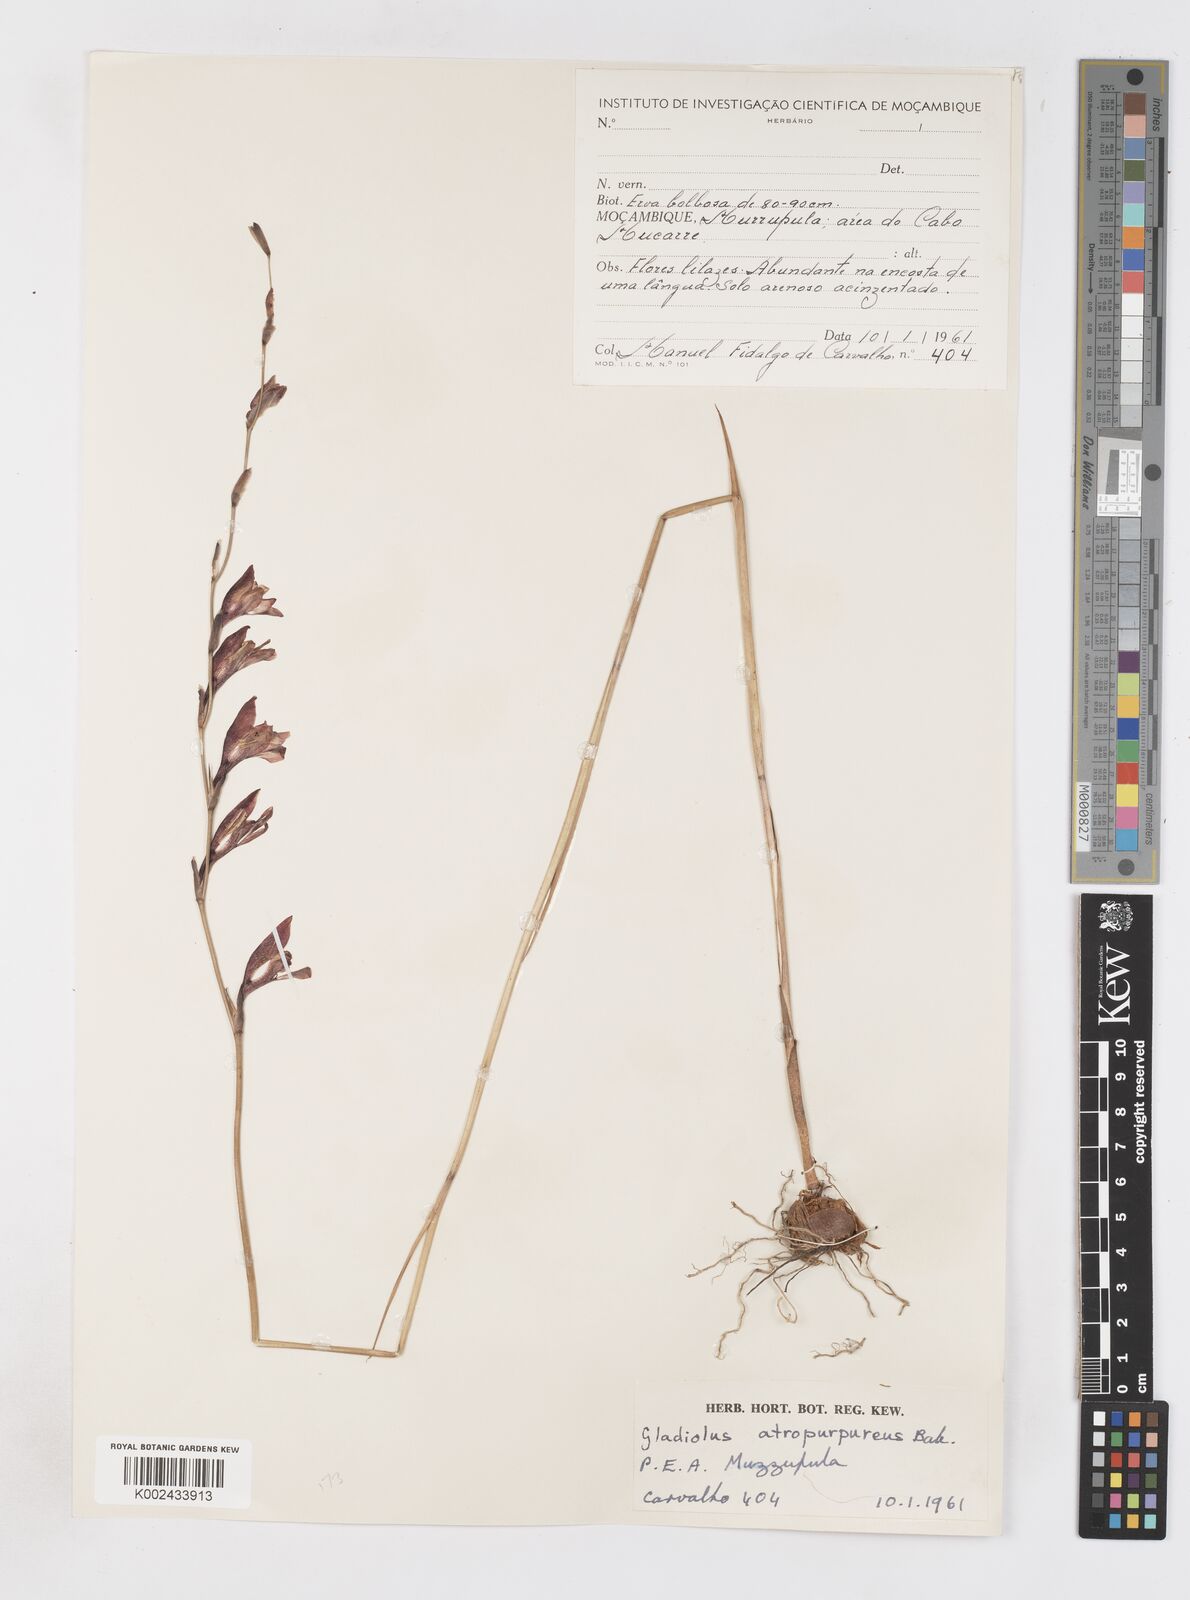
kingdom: Plantae
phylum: Tracheophyta
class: Liliopsida
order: Asparagales
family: Iridaceae
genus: Gladiolus
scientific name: Gladiolus atropurpureus
